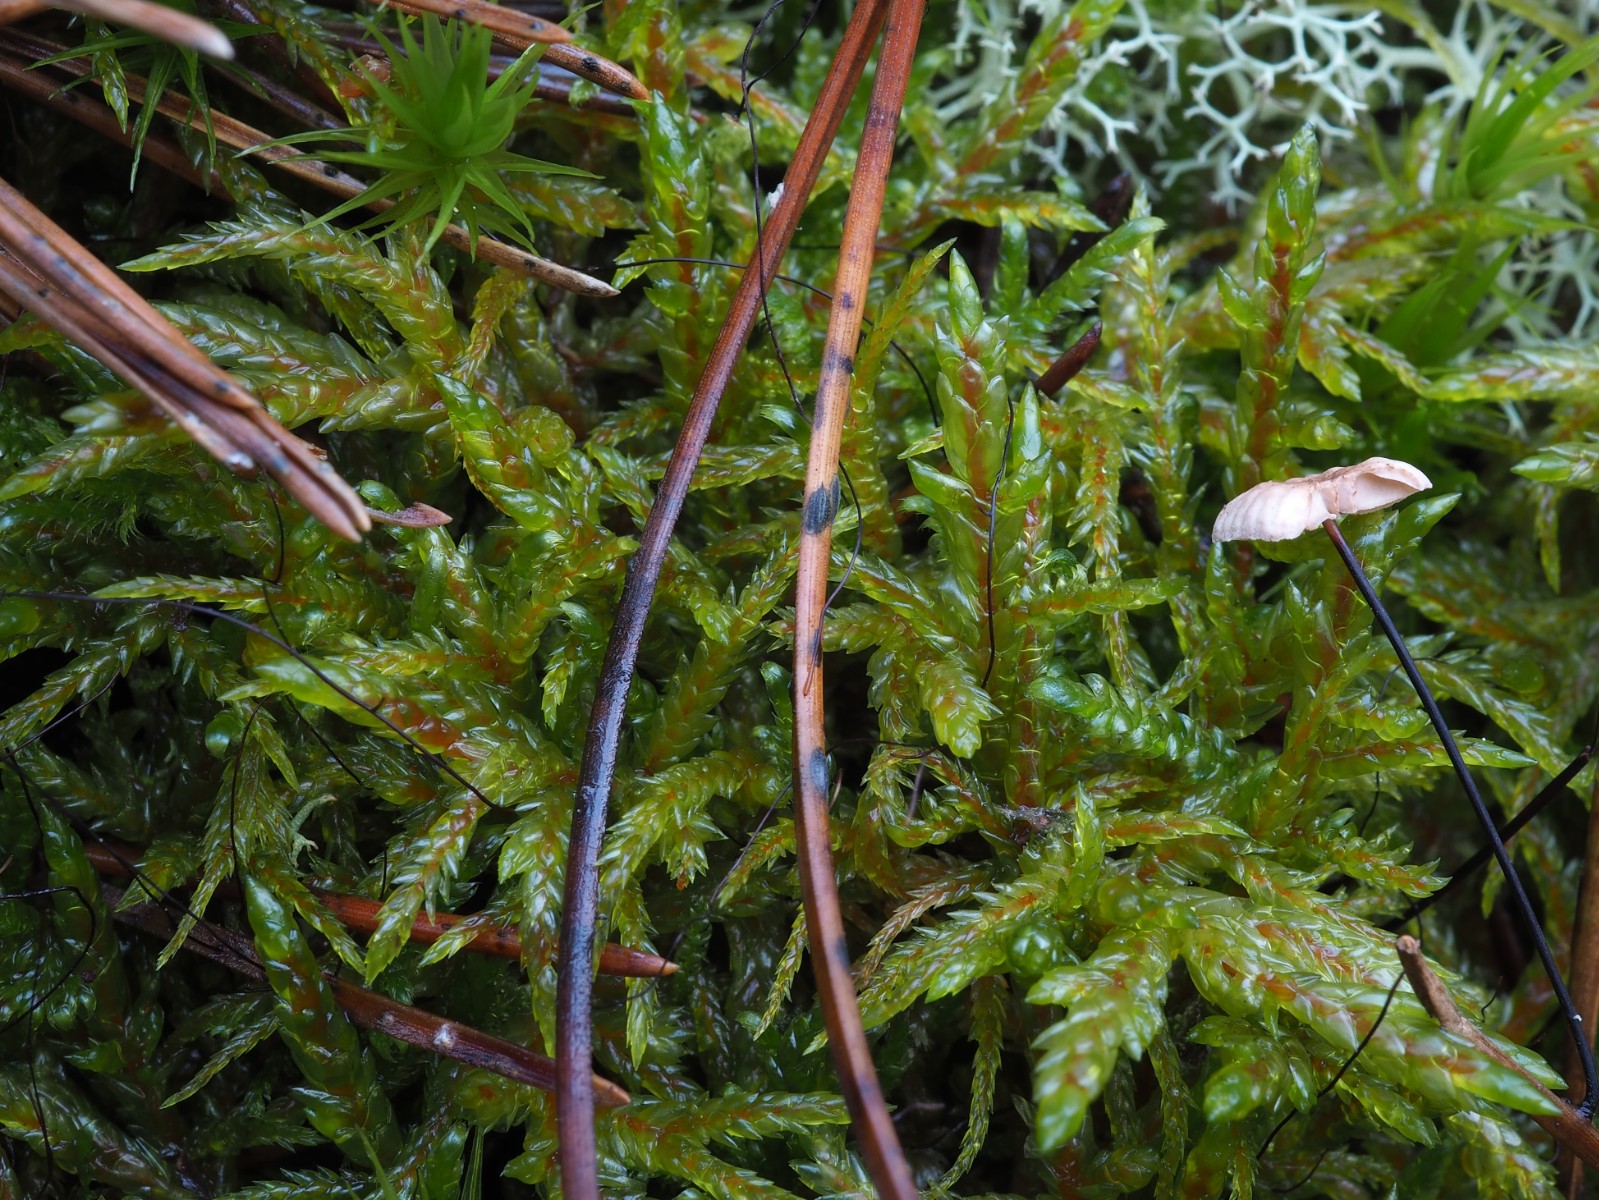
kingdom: Fungi
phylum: Ascomycota
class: Leotiomycetes
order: Rhytismatales
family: Rhytismataceae
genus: Lophodermium
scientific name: Lophodermium
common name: fureplet
